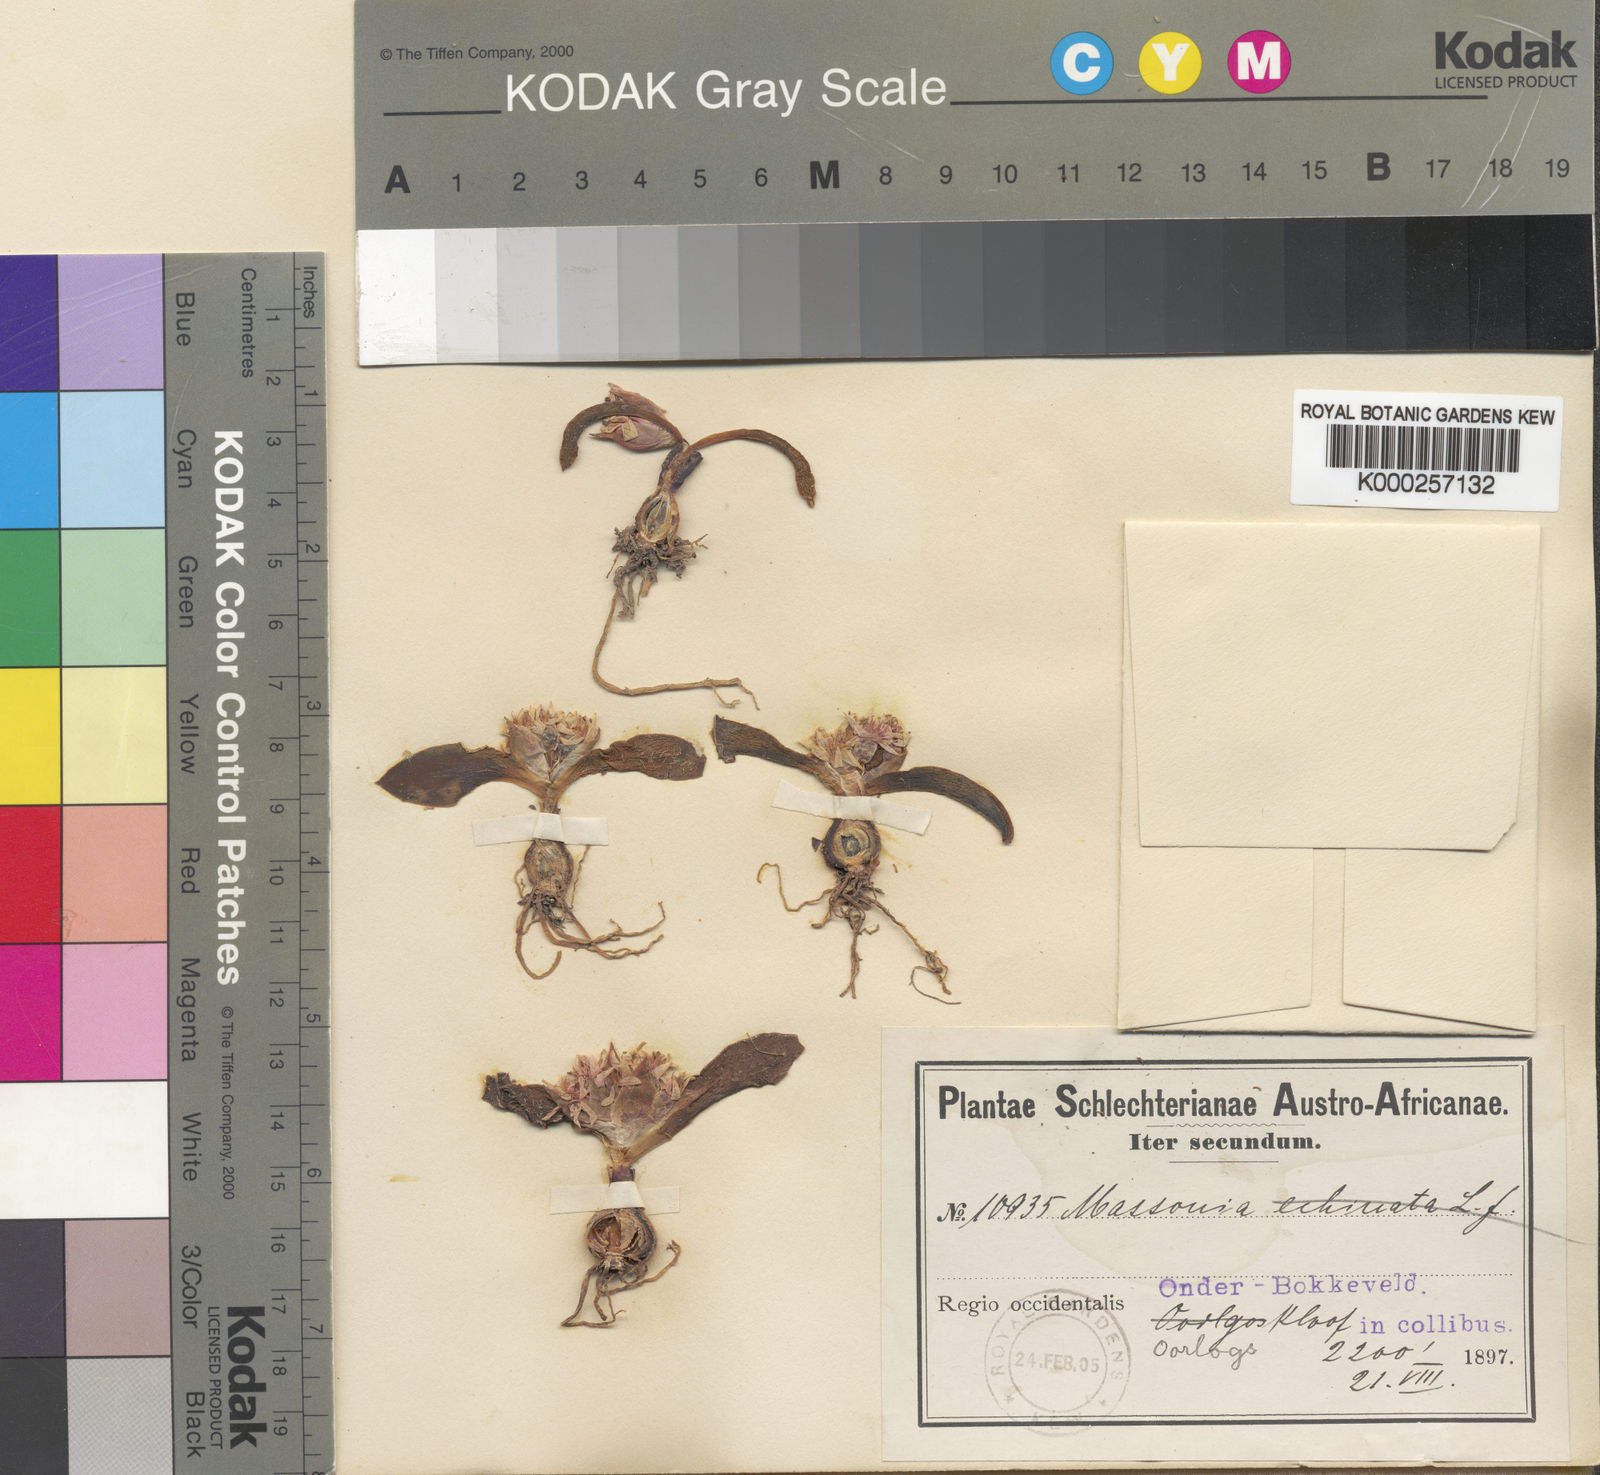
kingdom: Plantae
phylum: Tracheophyta
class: Liliopsida
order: Asparagales
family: Asparagaceae
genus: Massonia
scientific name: Massonia echinata
